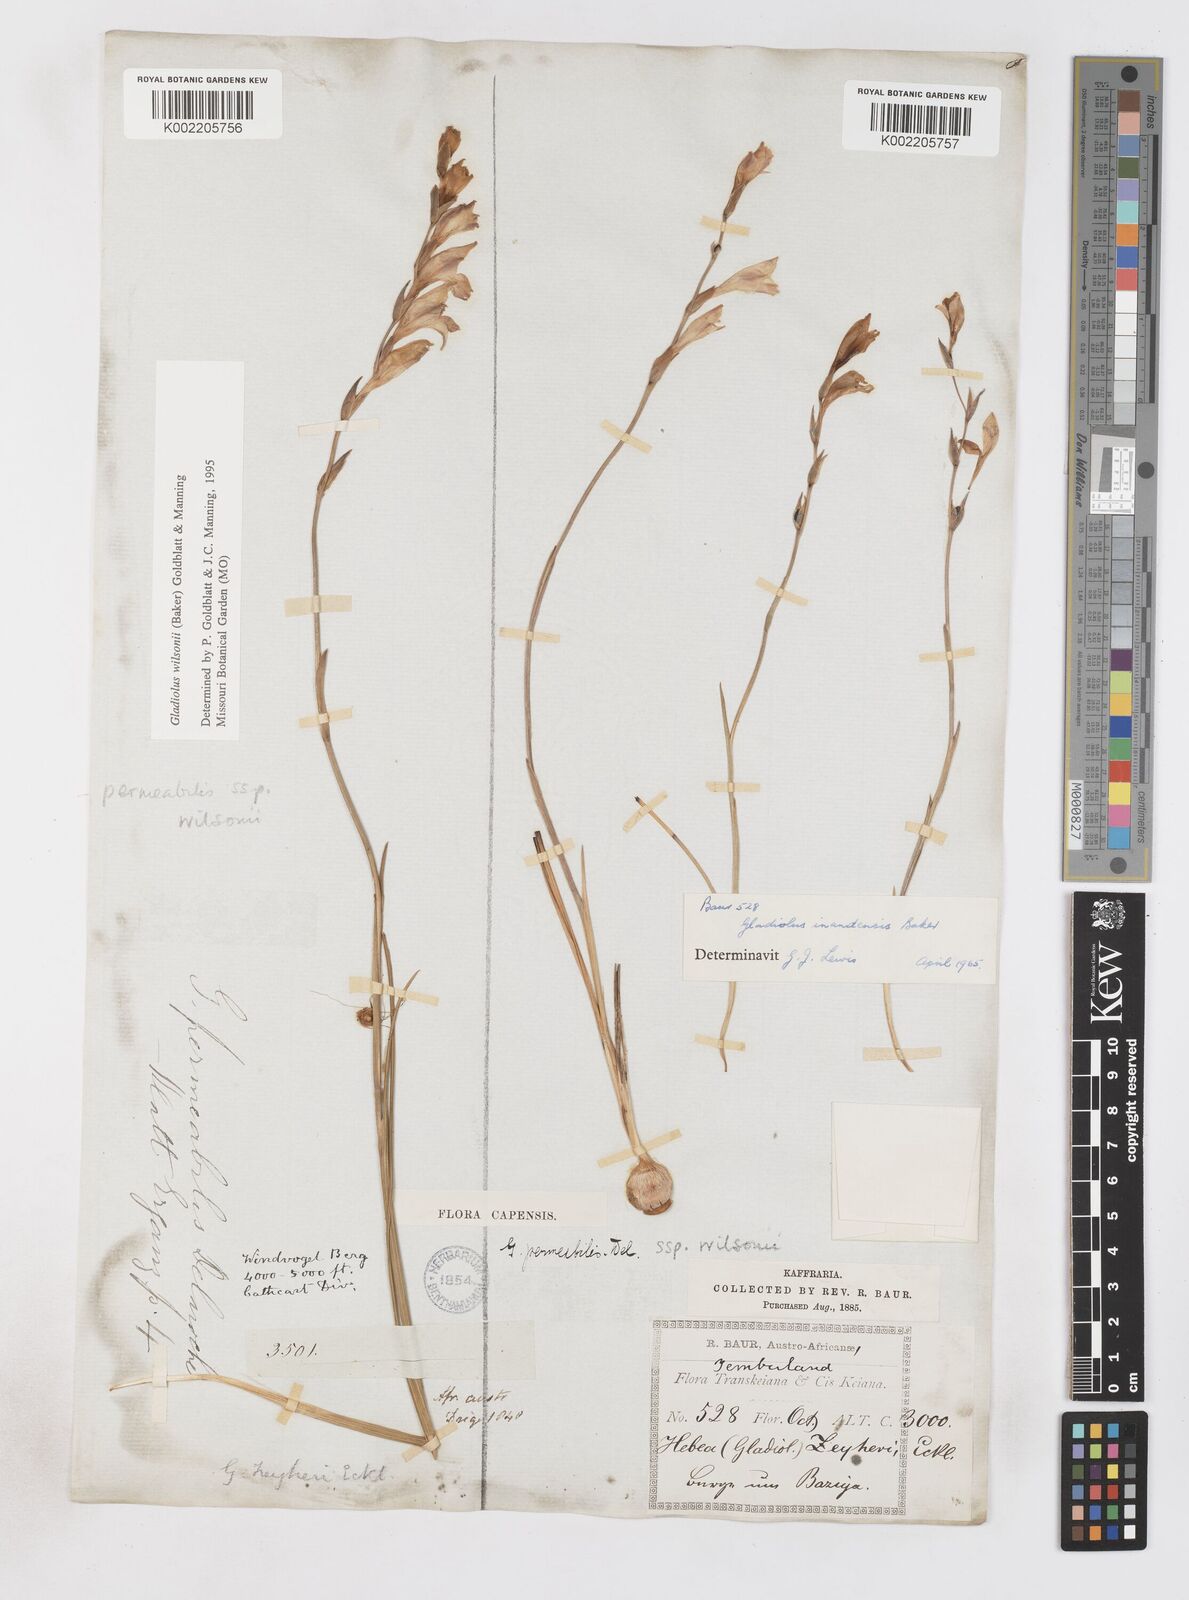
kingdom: Plantae
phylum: Tracheophyta
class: Liliopsida
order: Asparagales
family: Iridaceae
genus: Gladiolus
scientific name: Gladiolus wilsonii
